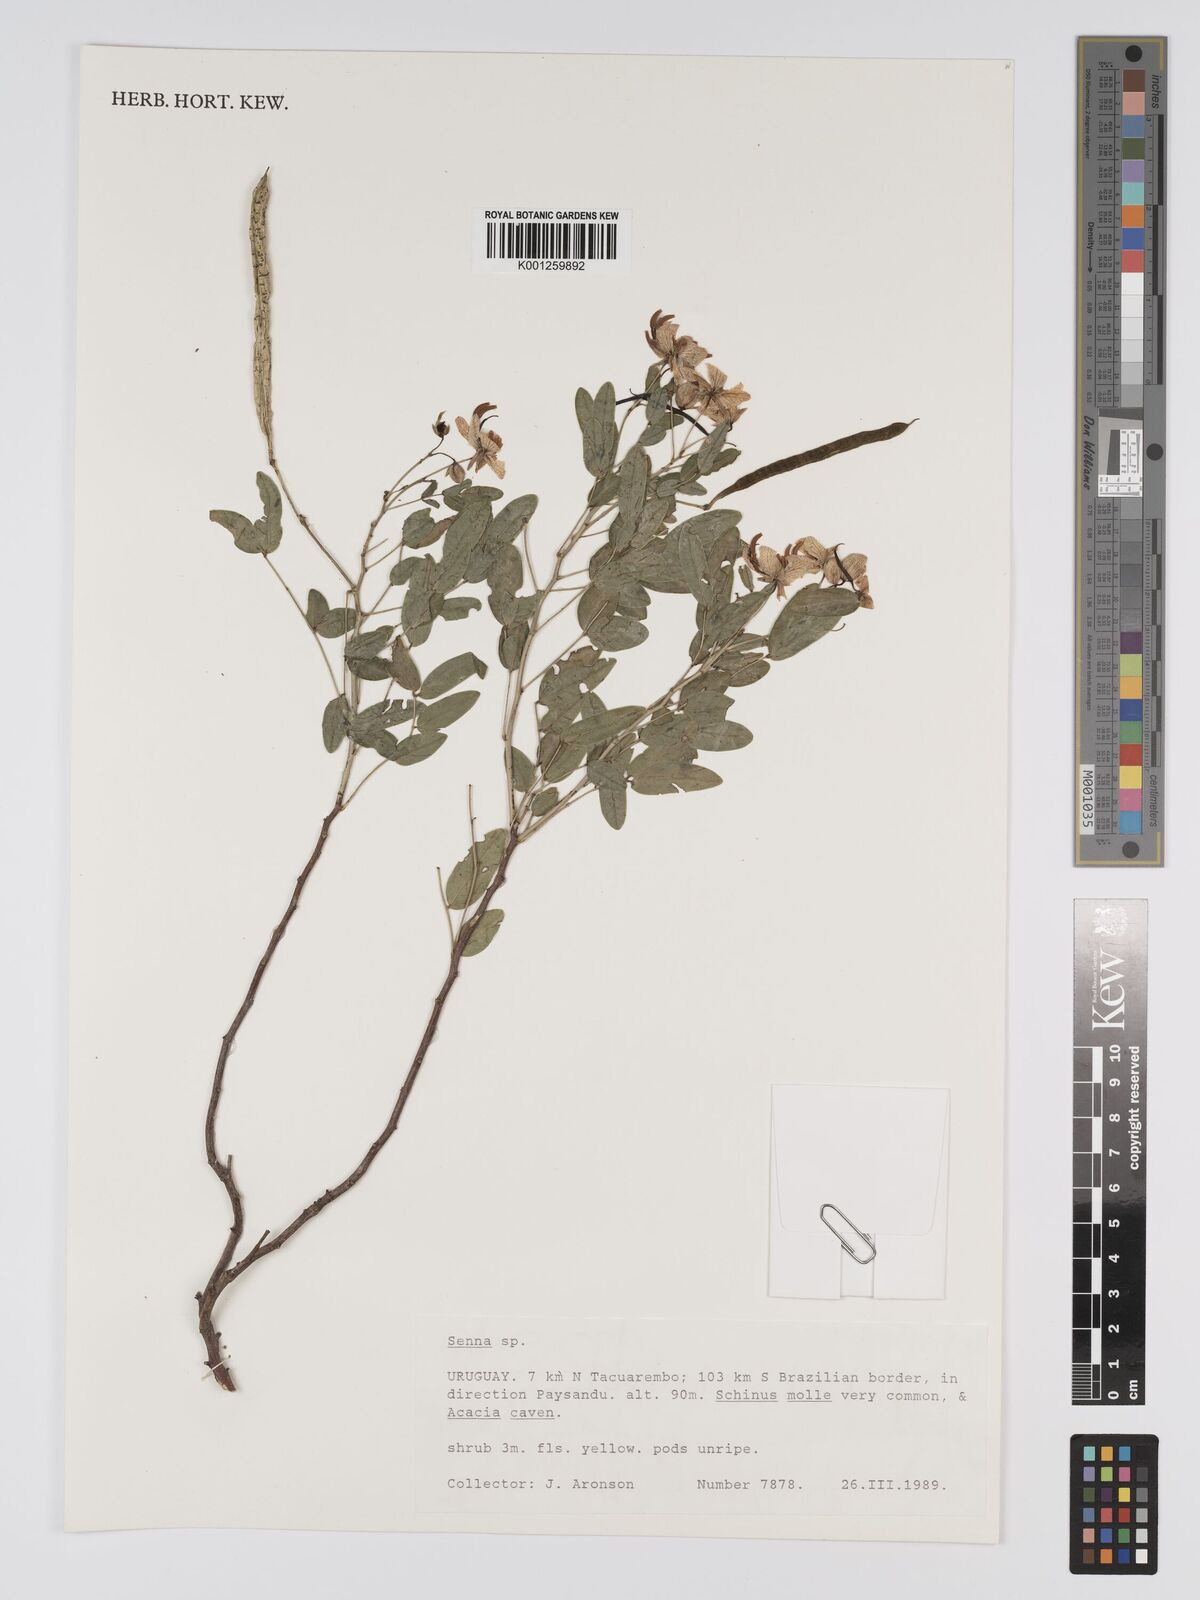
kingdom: Plantae
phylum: Tracheophyta
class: Magnoliopsida
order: Fabales
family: Fabaceae
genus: Senna
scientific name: Senna
